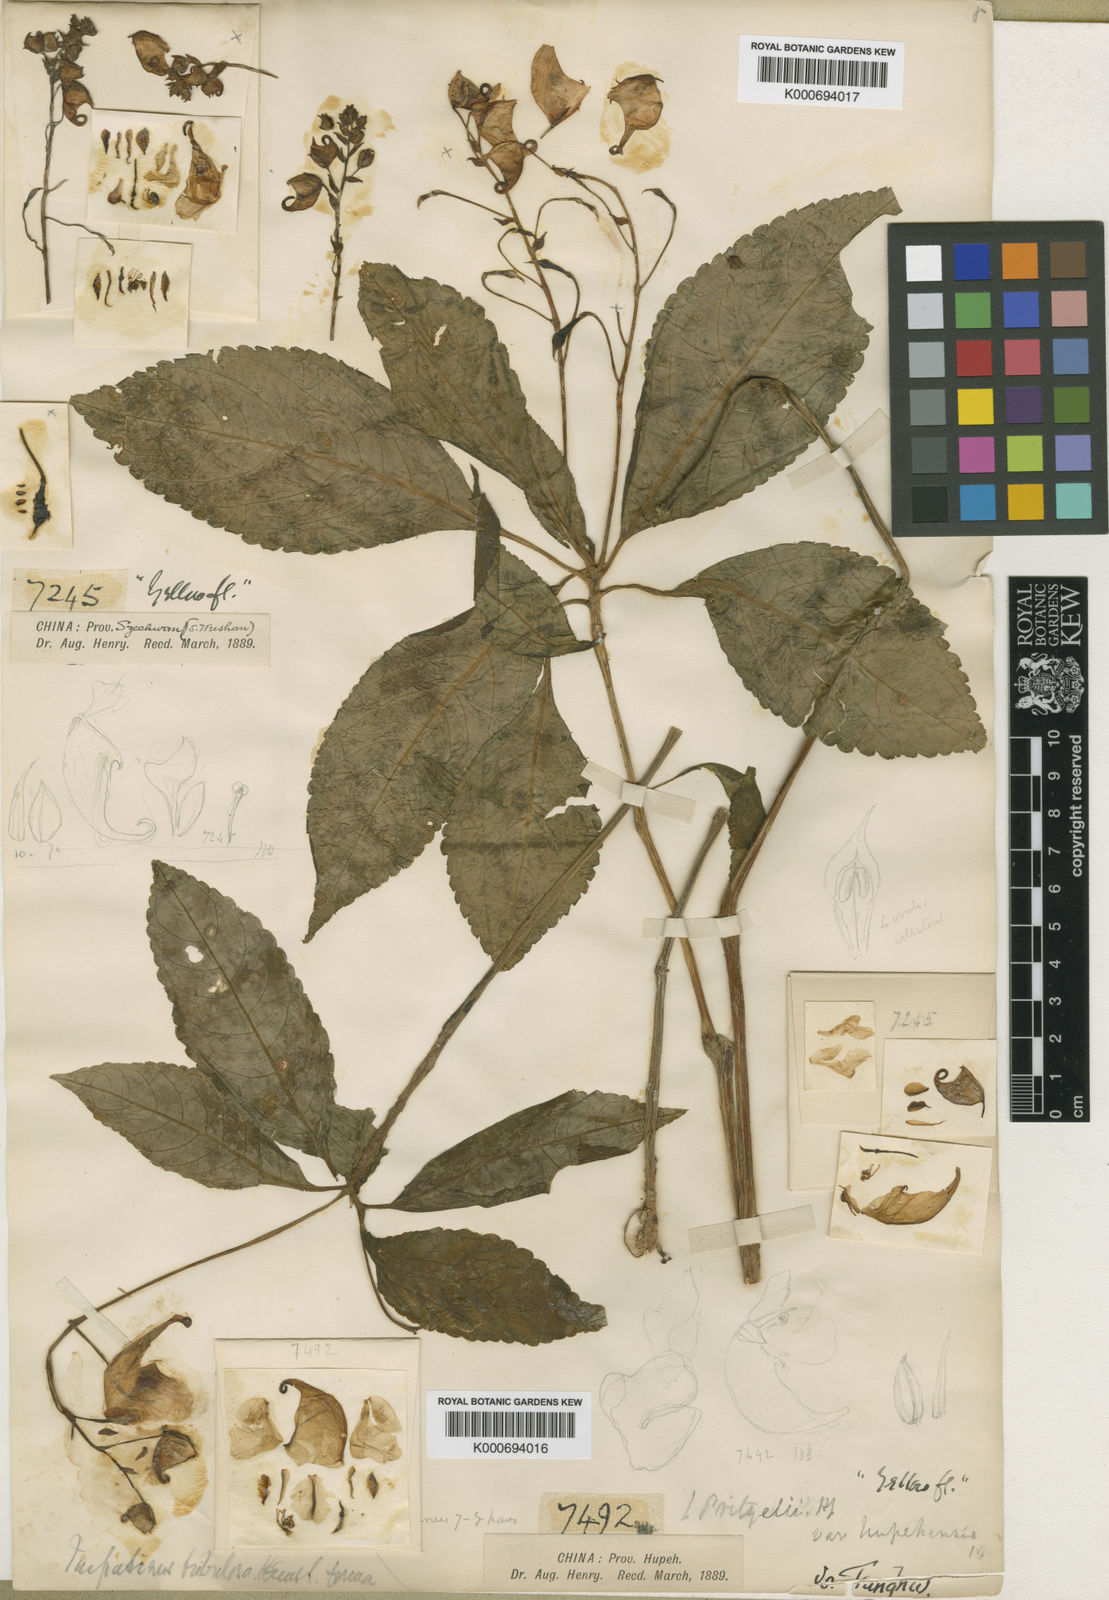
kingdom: Plantae
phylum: Tracheophyta
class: Magnoliopsida
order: Ericales
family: Balsaminaceae
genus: Impatiens
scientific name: Impatiens pritzelii
